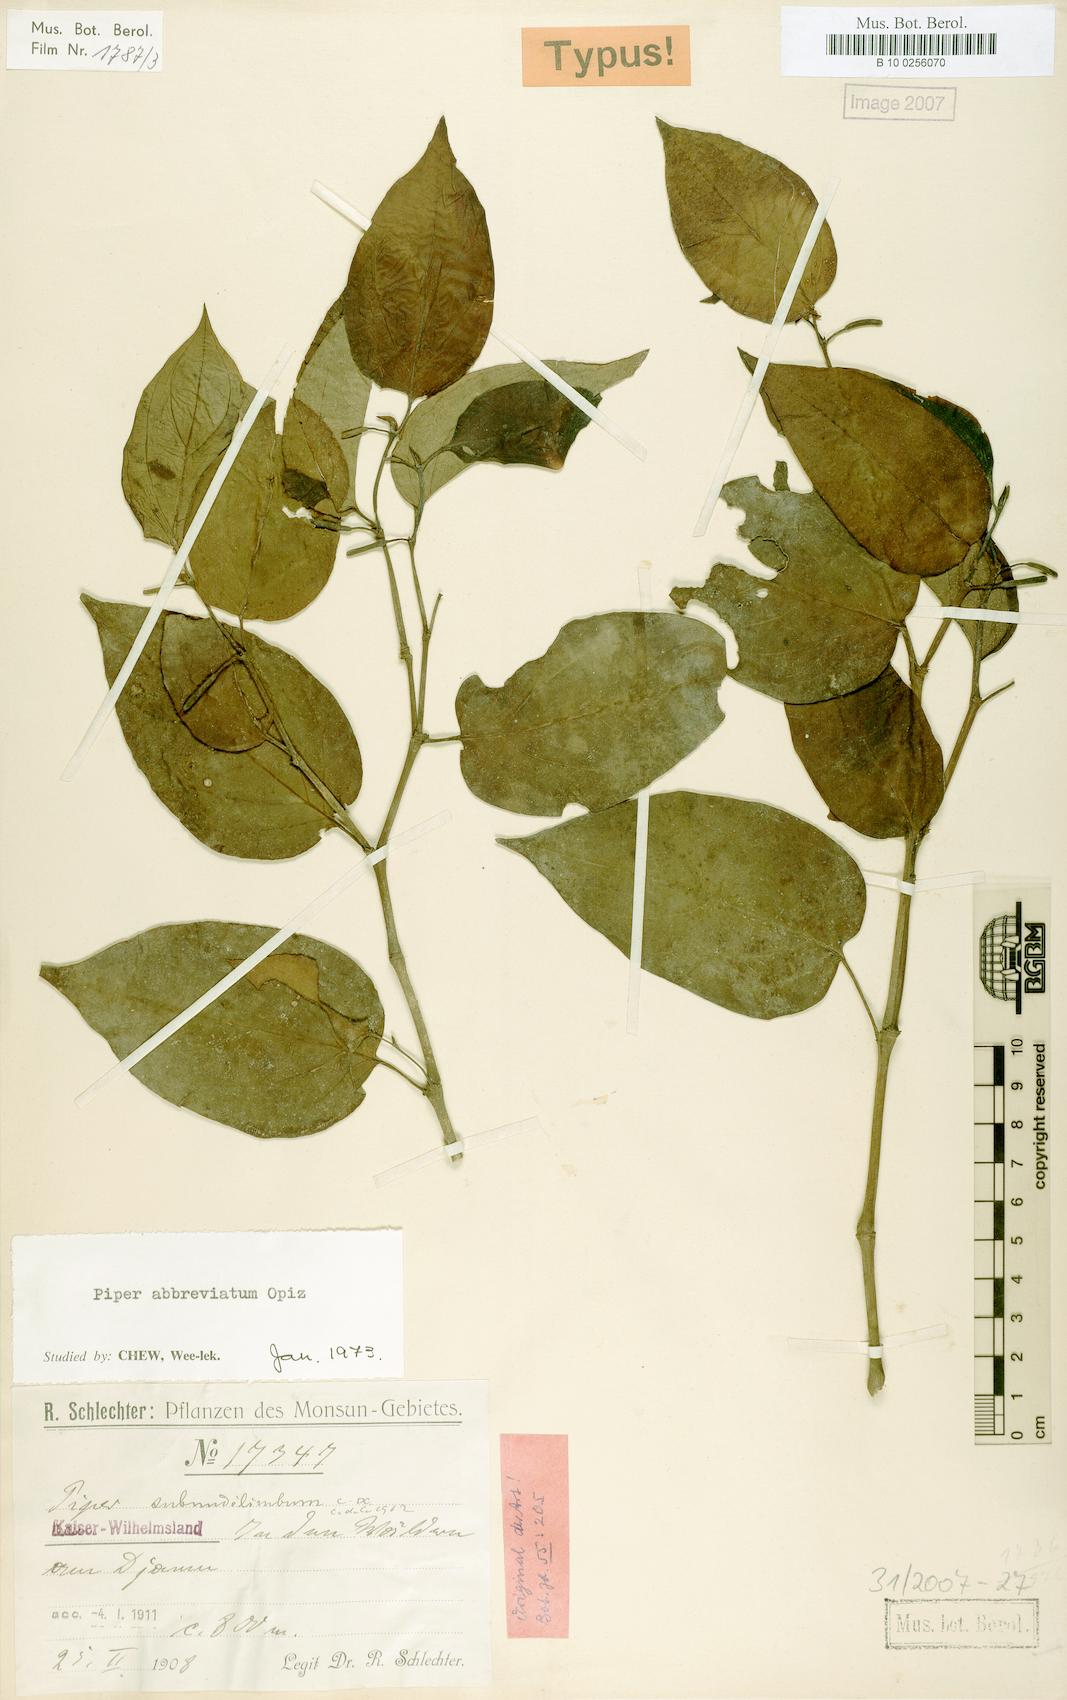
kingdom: Plantae
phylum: Tracheophyta
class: Magnoliopsida
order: Piperales
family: Piperaceae
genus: Piper
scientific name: Piper abbreviatum
